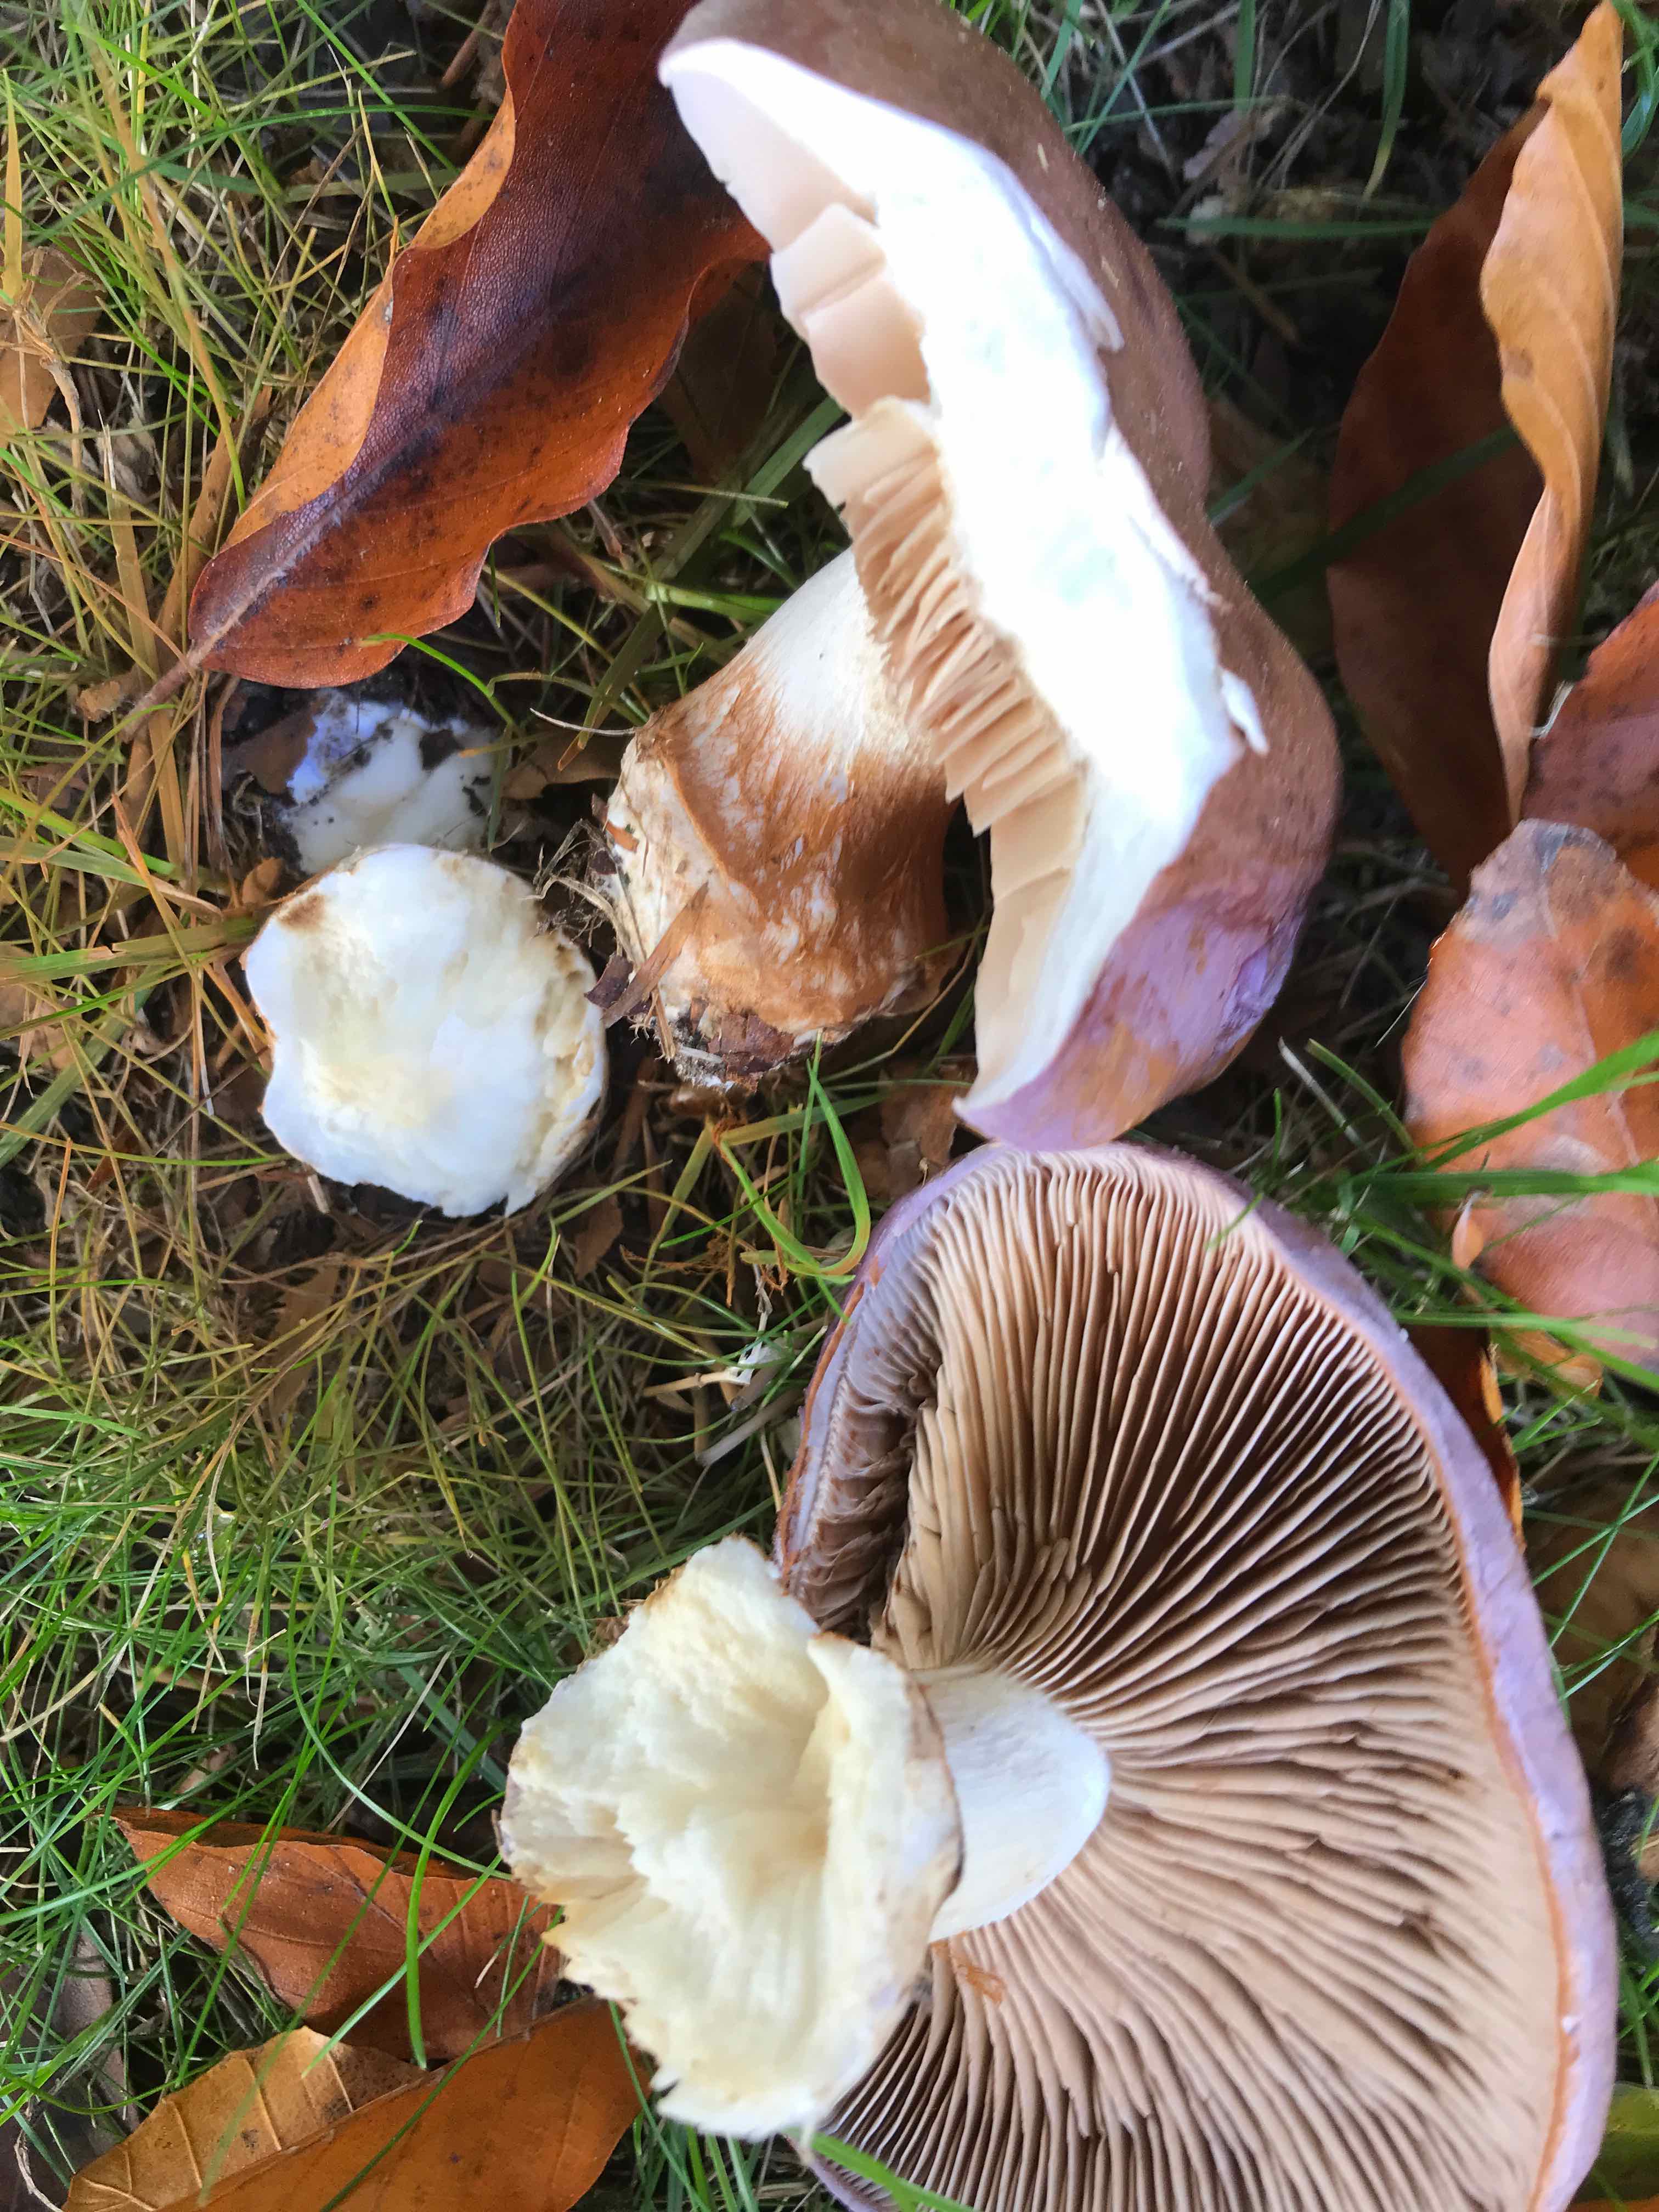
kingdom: Fungi
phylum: Basidiomycota
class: Agaricomycetes
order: Agaricales
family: Cortinariaceae
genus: Phlegmacium
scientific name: Phlegmacium balteatocumatile
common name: violettrådet slørhat
